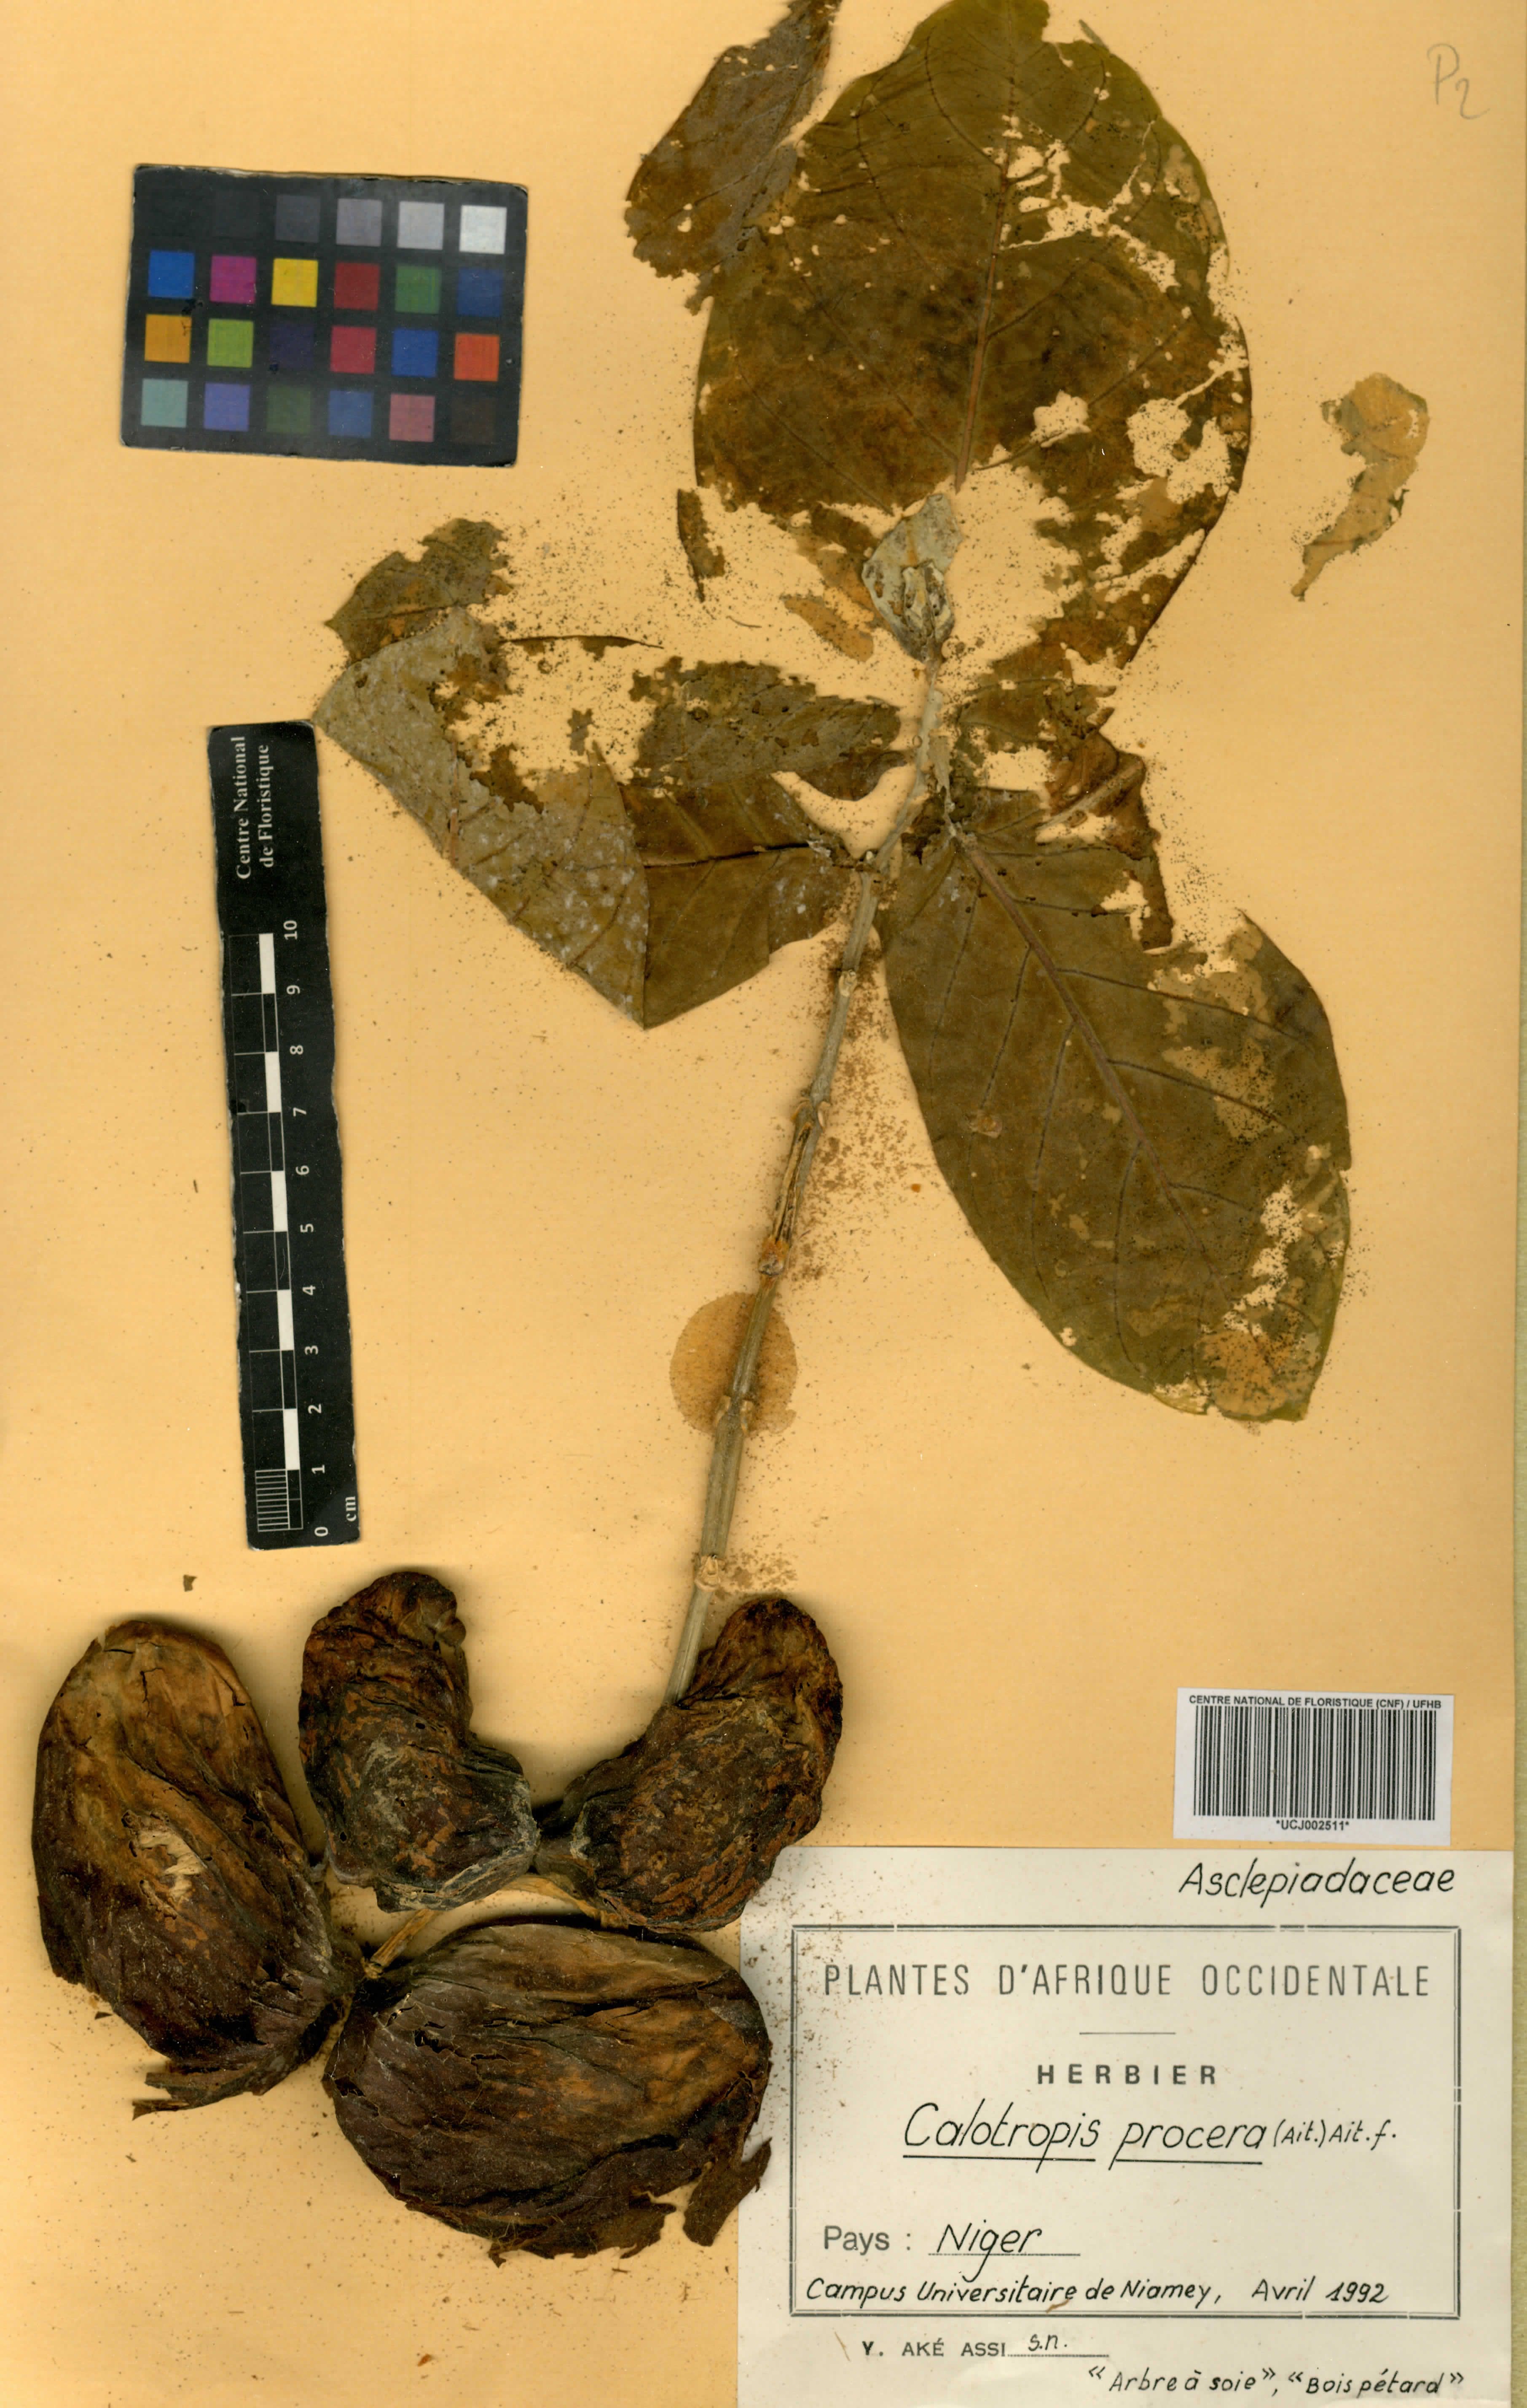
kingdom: Plantae
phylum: Tracheophyta
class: Magnoliopsida
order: Gentianales
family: Apocynaceae
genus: Calotropis
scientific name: Calotropis procera
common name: Roostertree
